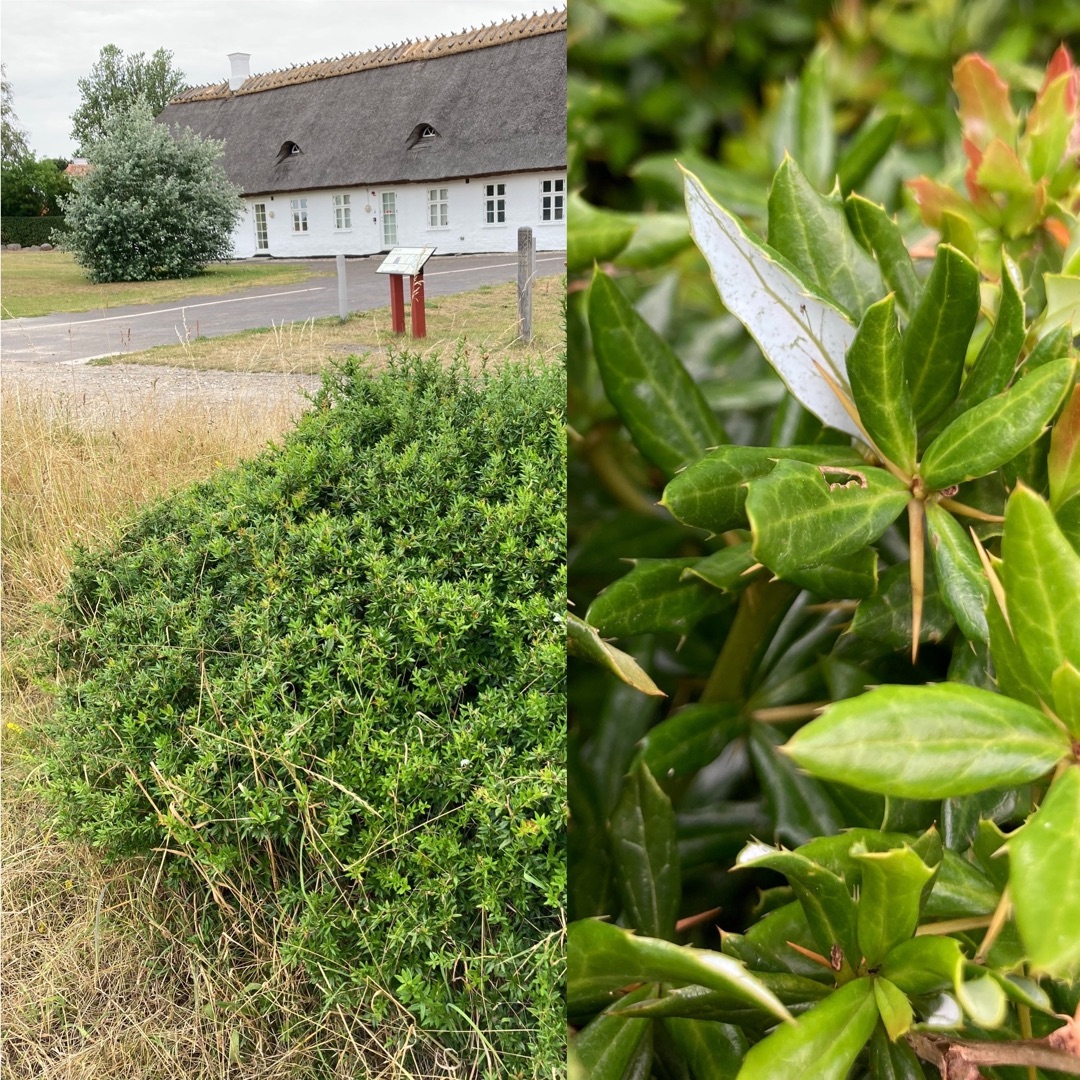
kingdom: Plantae
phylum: Tracheophyta
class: Magnoliopsida
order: Ranunculales
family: Berberidaceae
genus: Berberis
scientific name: Berberis hybridogagnepainii
